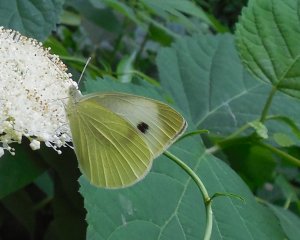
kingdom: Animalia
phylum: Arthropoda
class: Insecta
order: Lepidoptera
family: Pieridae
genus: Pieris
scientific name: Pieris rapae
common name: Cabbage White
